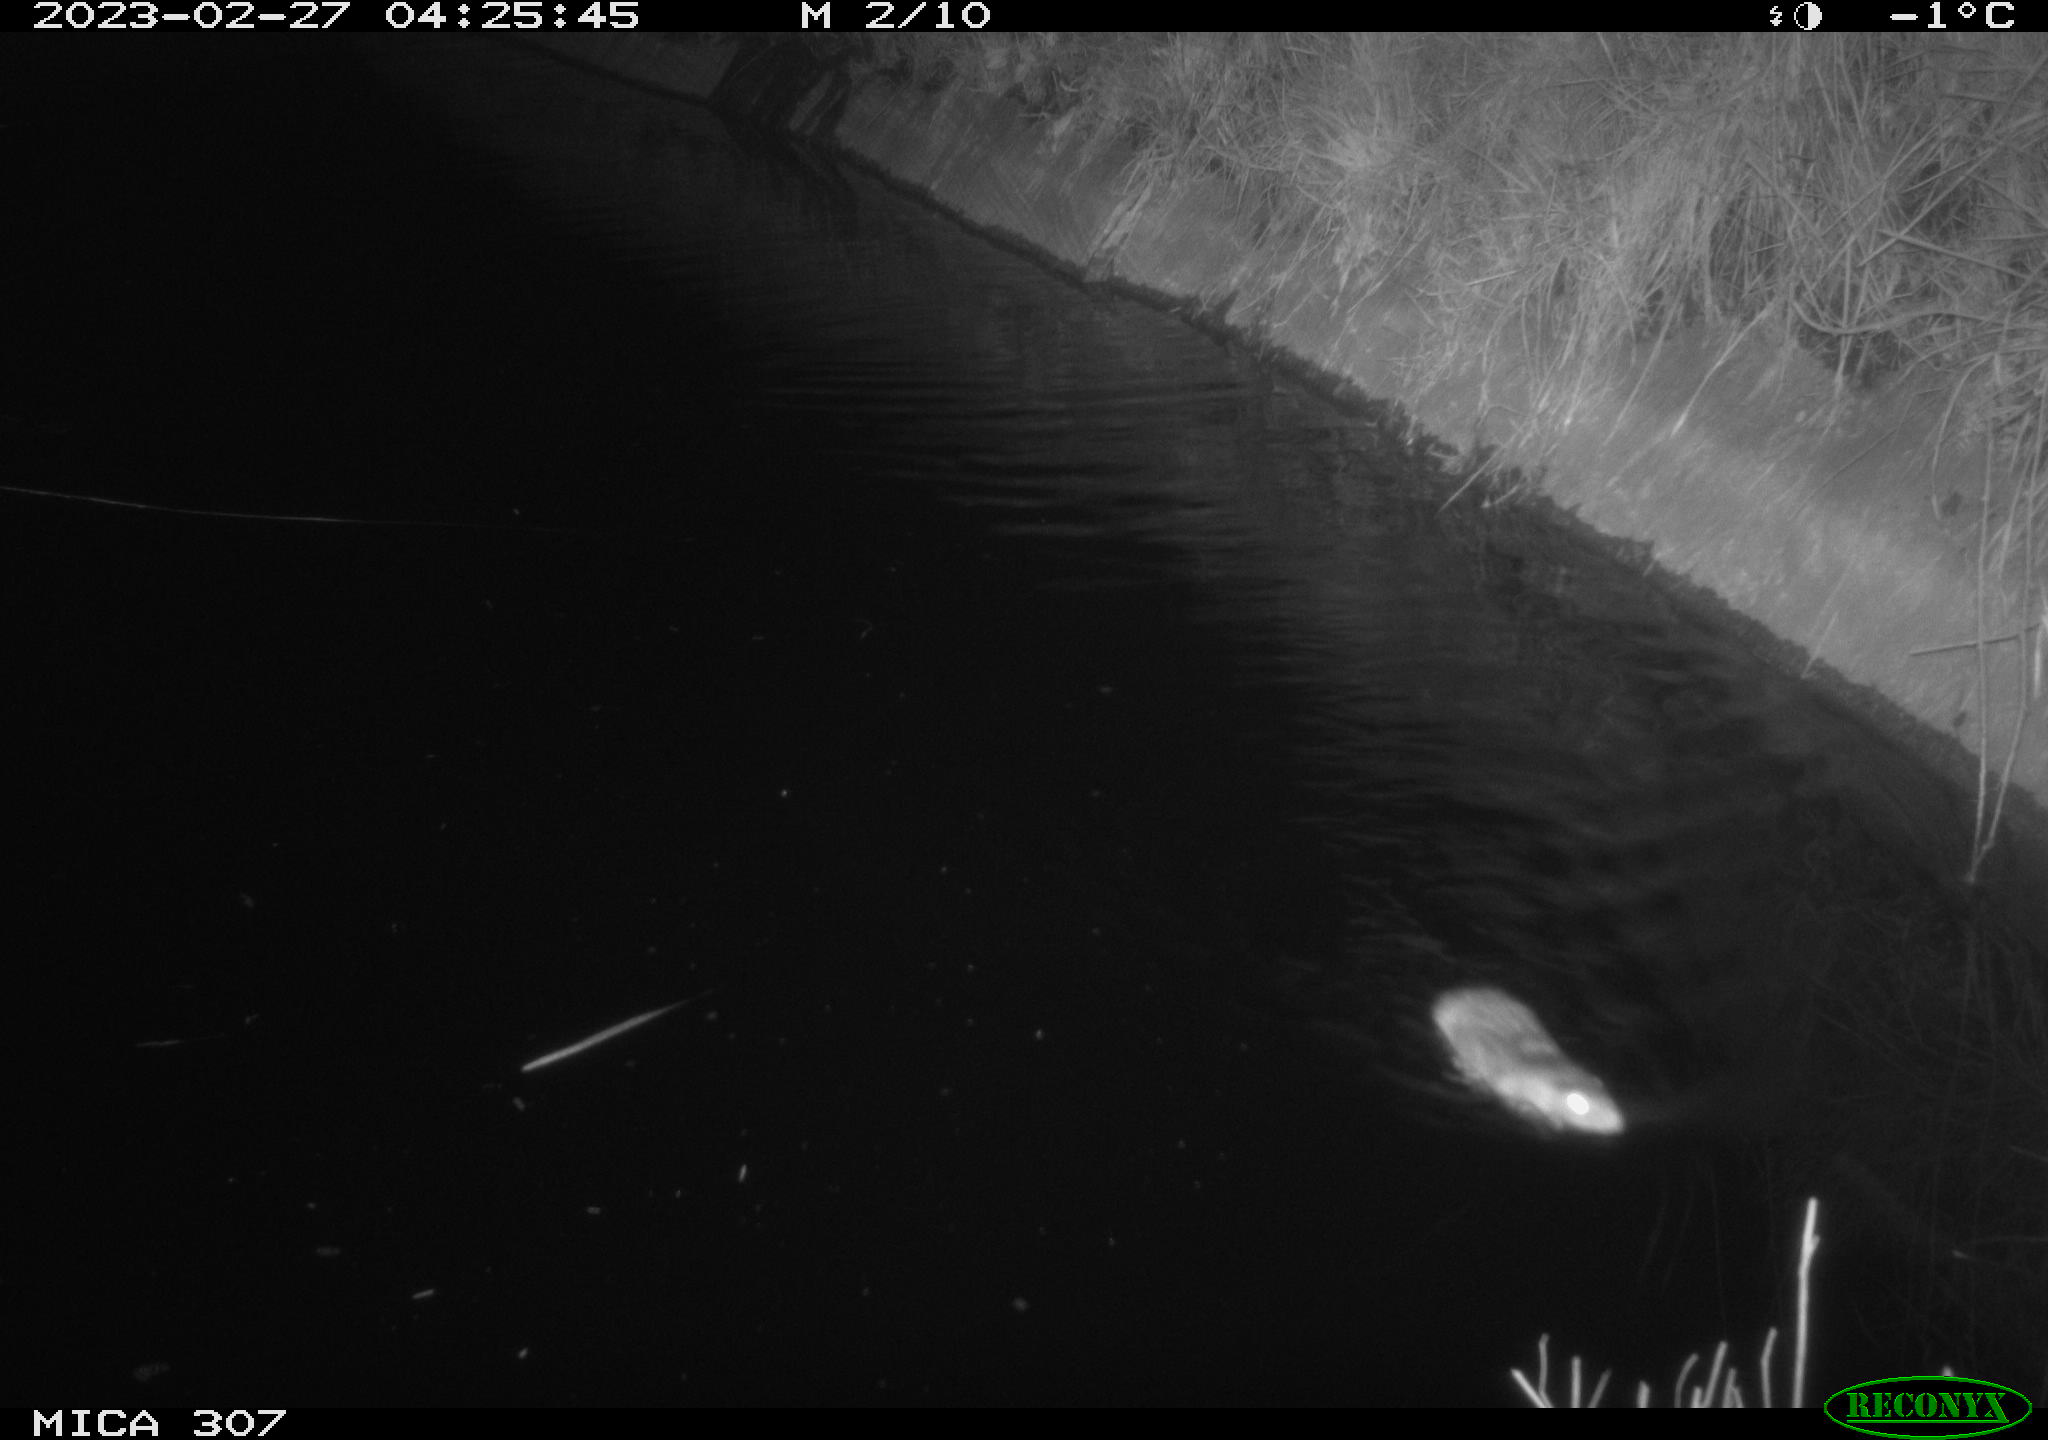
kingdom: Animalia
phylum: Chordata
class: Mammalia
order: Rodentia
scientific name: Rodentia
